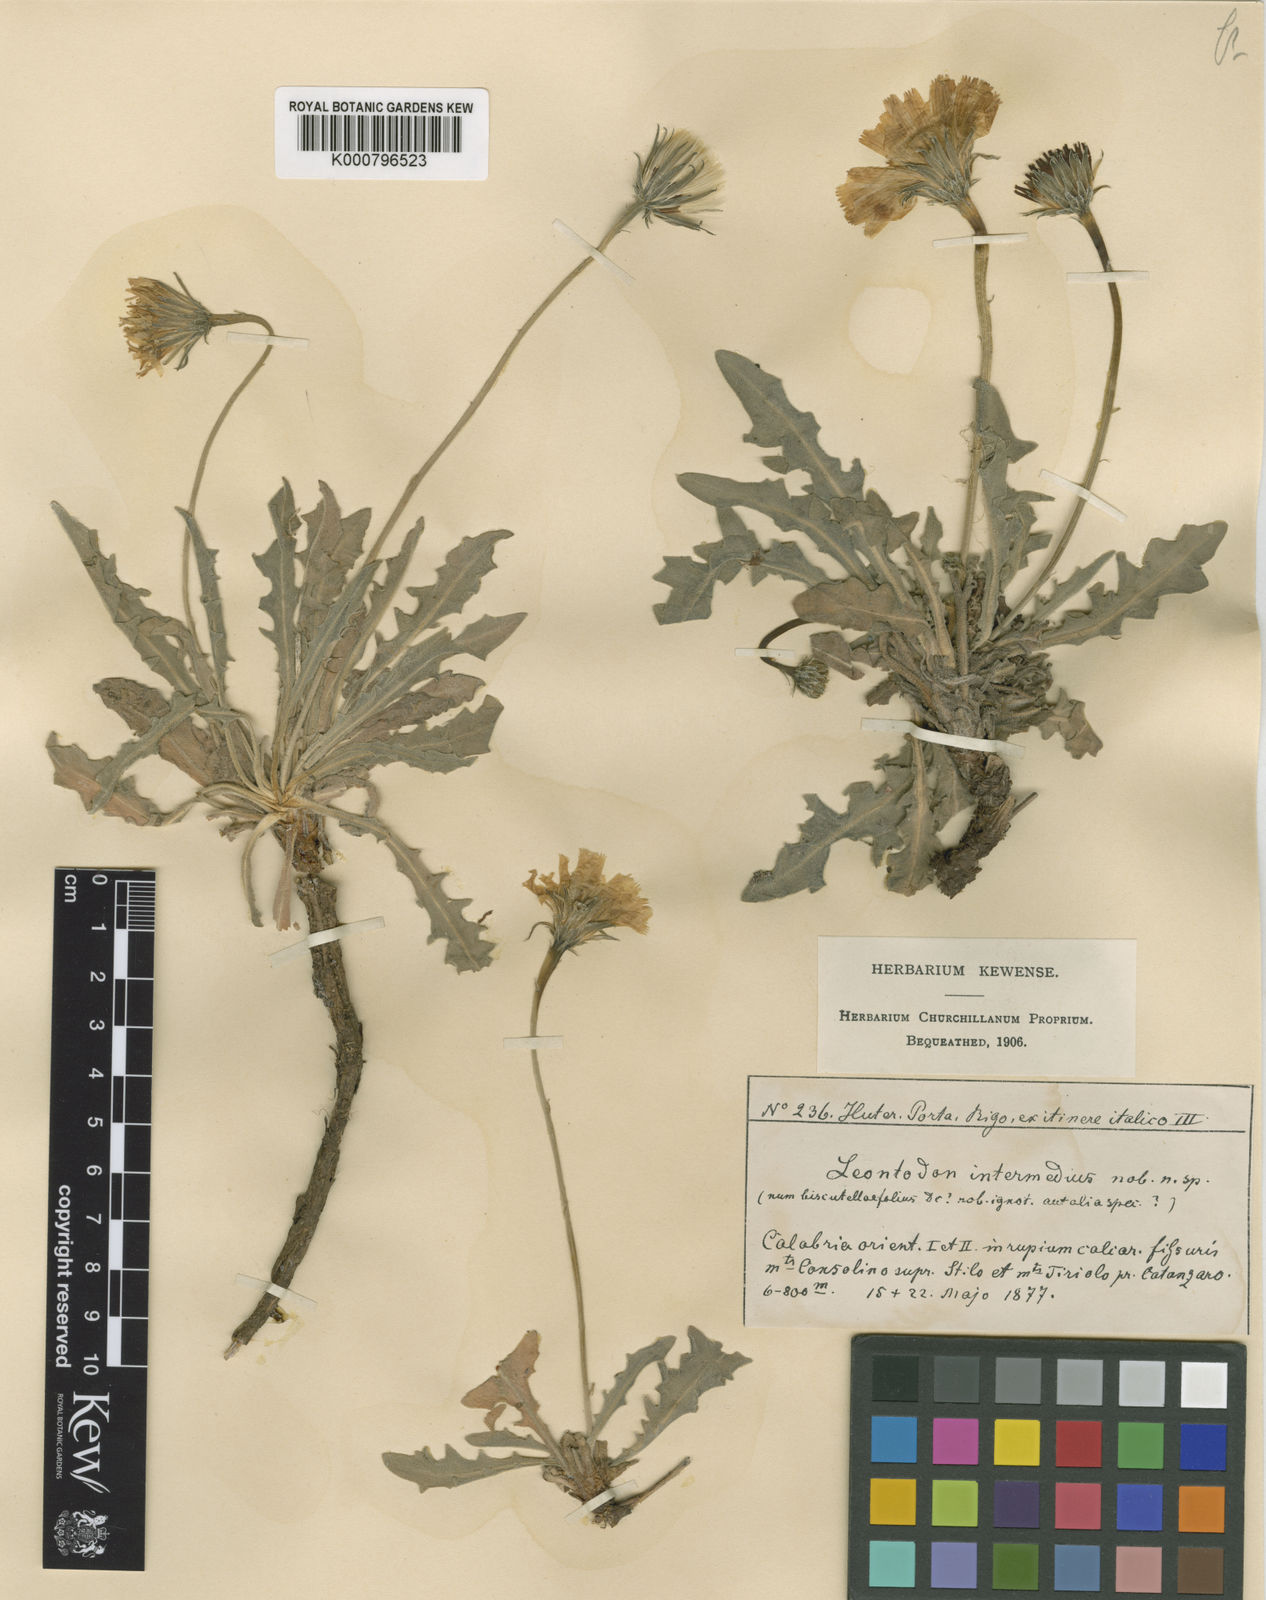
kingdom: Plantae
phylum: Tracheophyta
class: Magnoliopsida
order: Asterales
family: Asteraceae
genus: Leontodon
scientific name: Leontodon crispus
